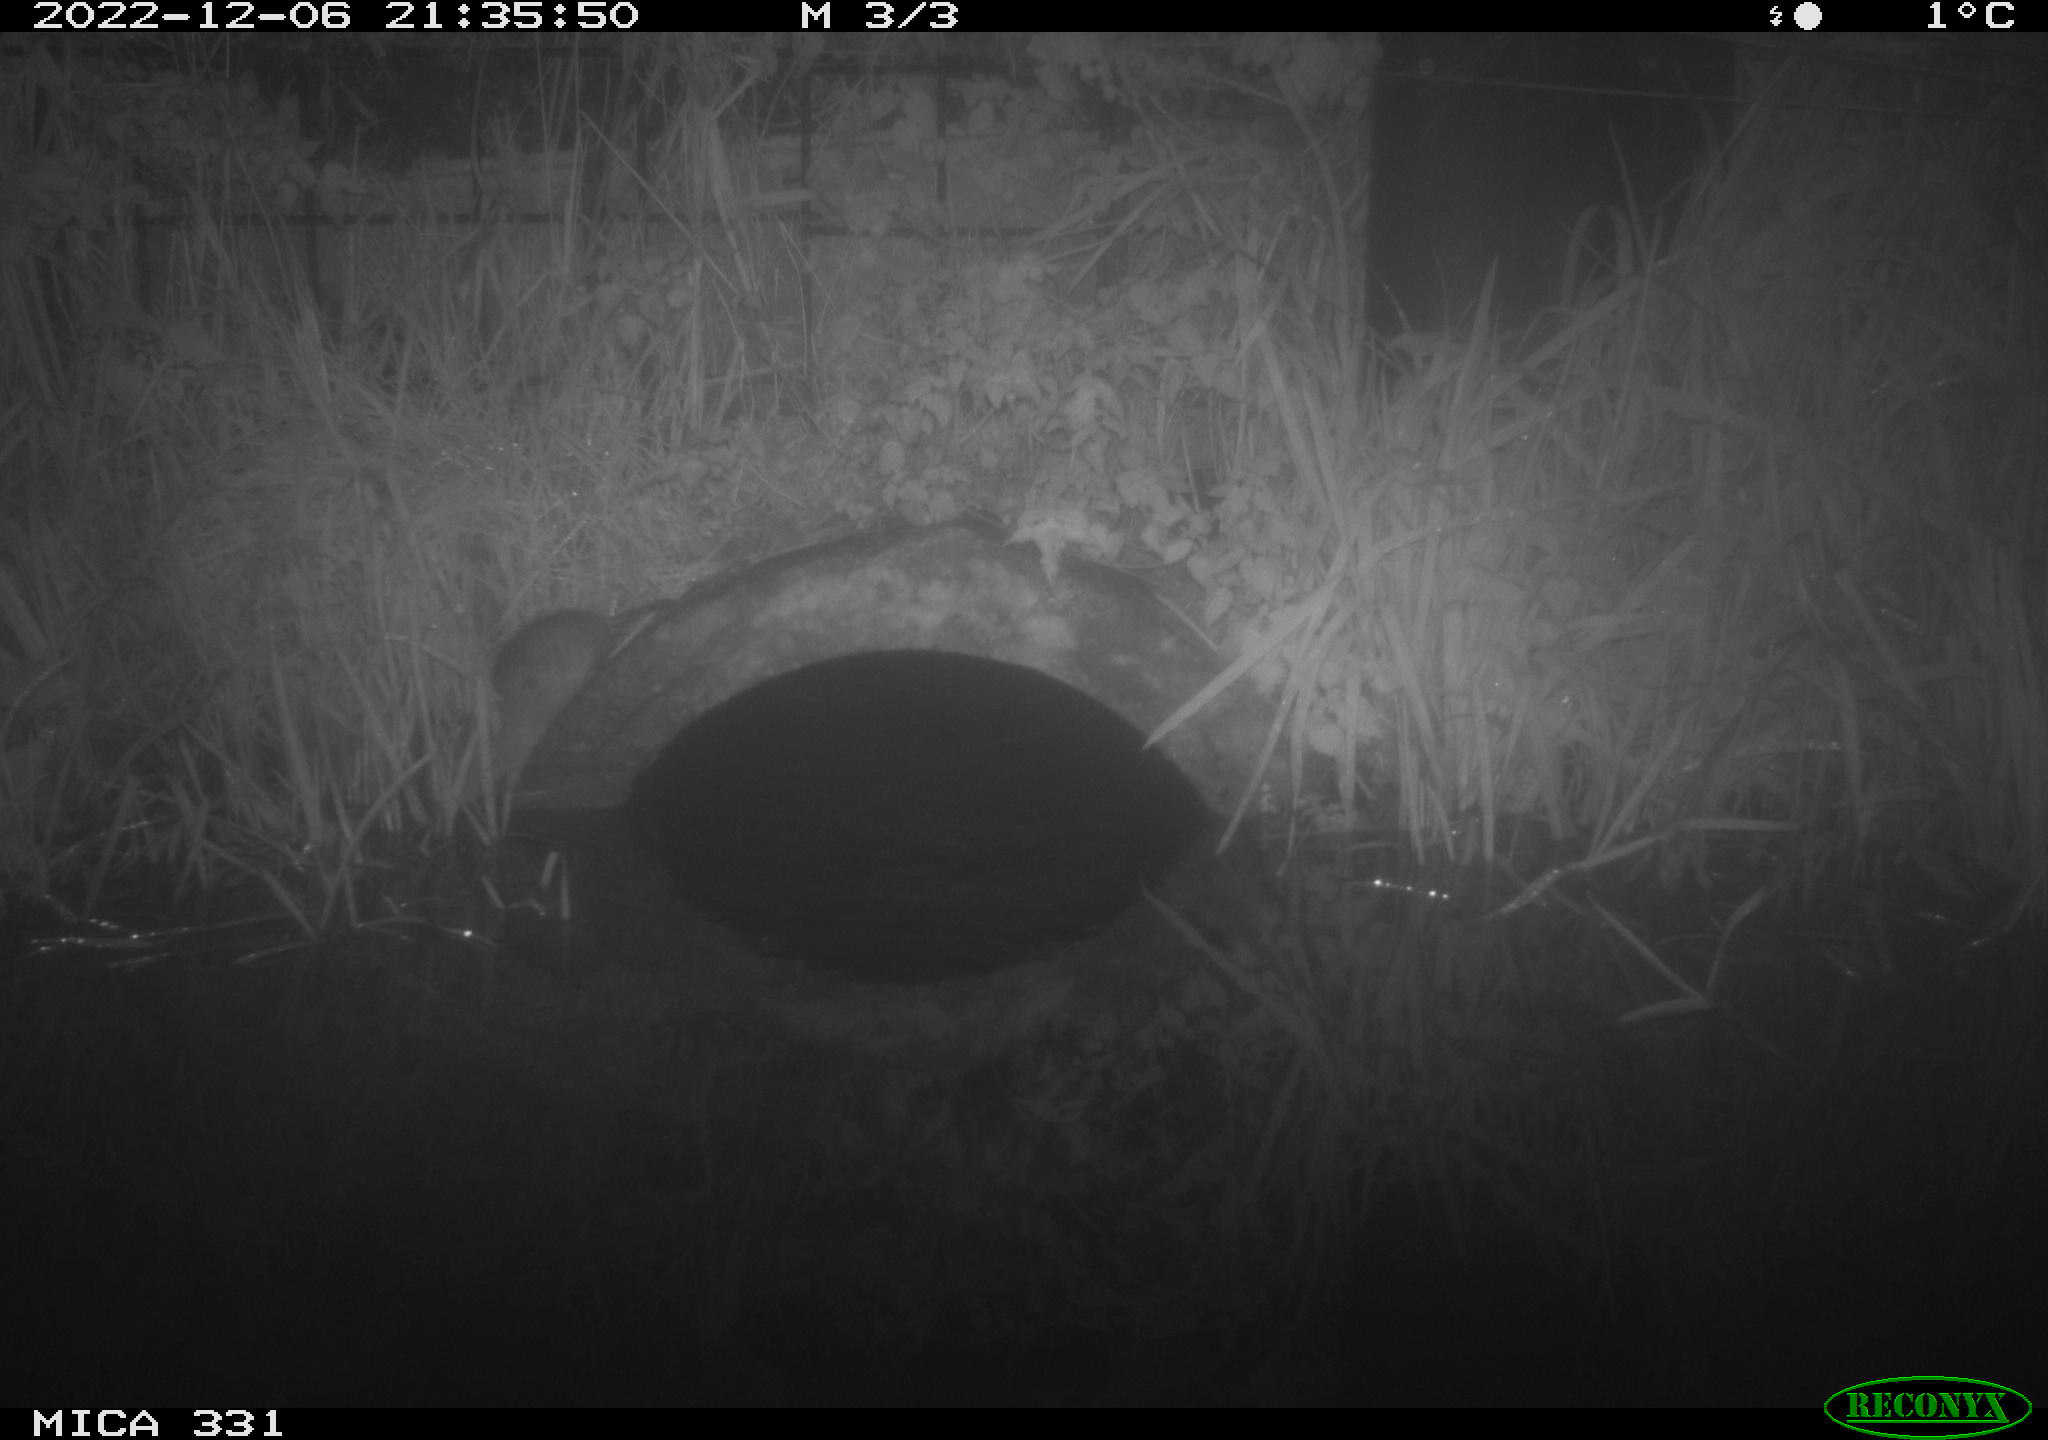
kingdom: Animalia
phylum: Chordata
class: Mammalia
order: Rodentia
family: Muridae
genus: Rattus
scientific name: Rattus norvegicus
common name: Brown rat
